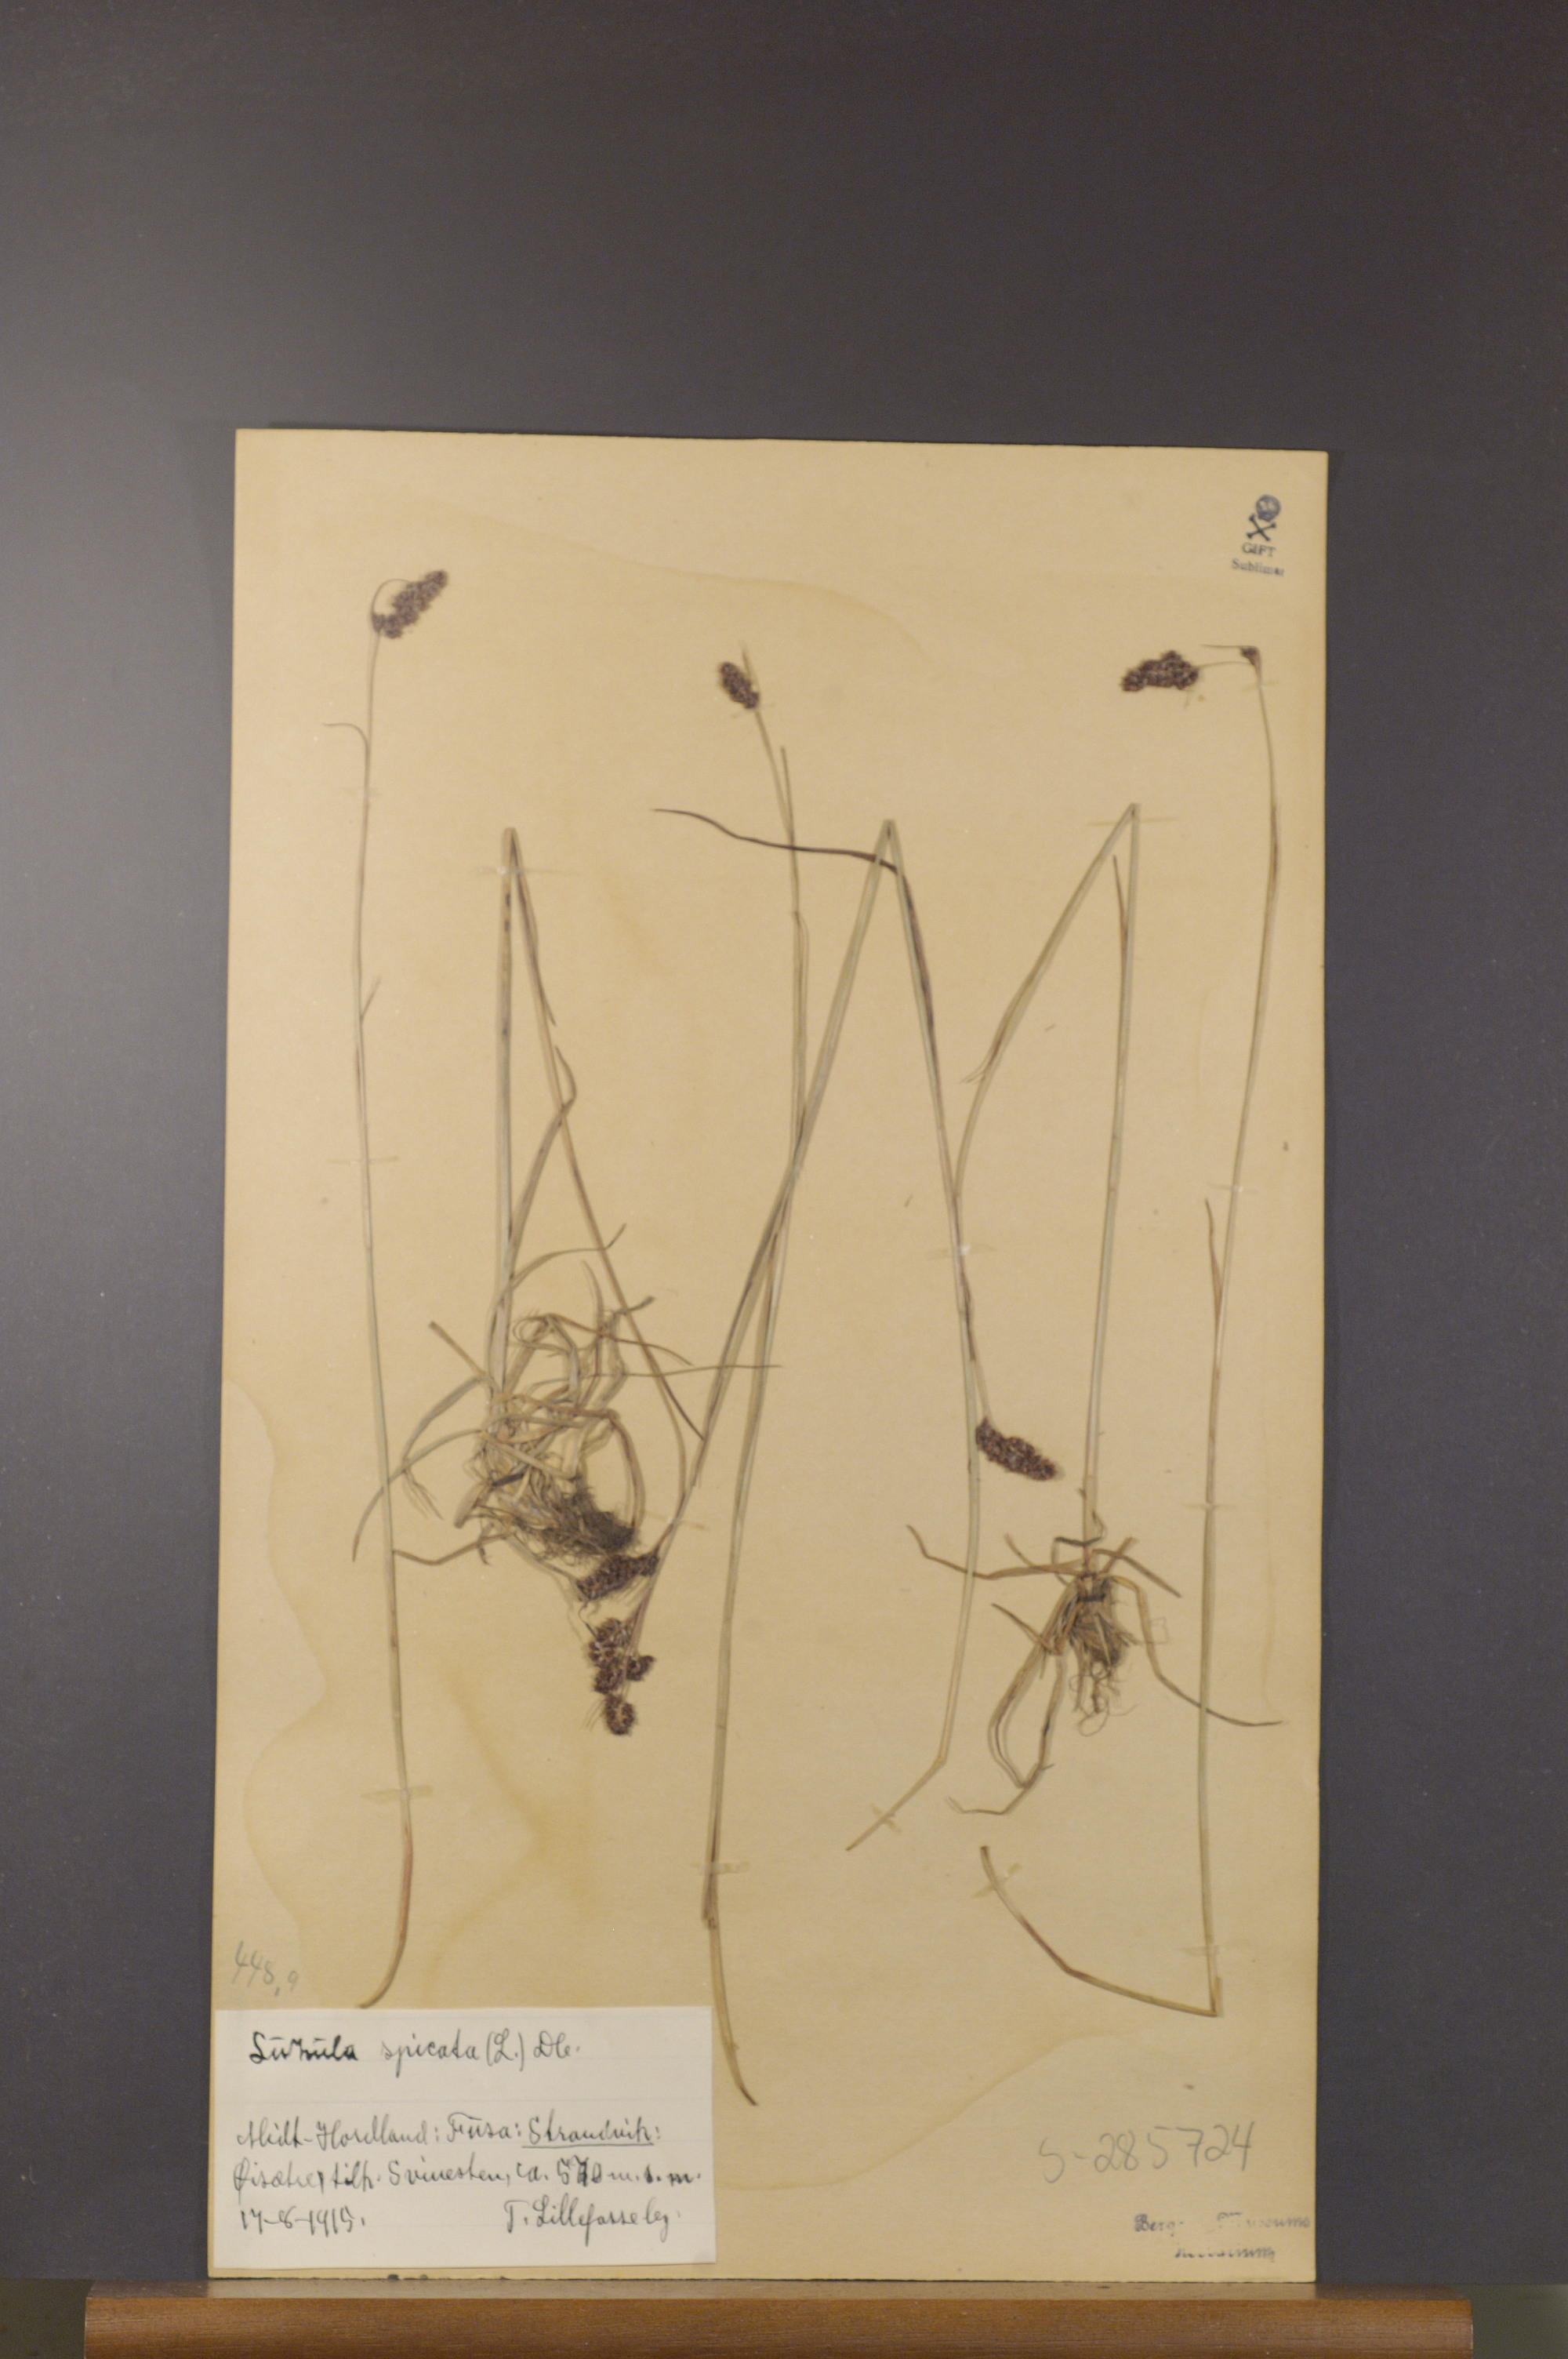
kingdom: Plantae
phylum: Tracheophyta
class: Liliopsida
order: Poales
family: Juncaceae
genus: Luzula
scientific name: Luzula spicata
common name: Spiked wood-rush
